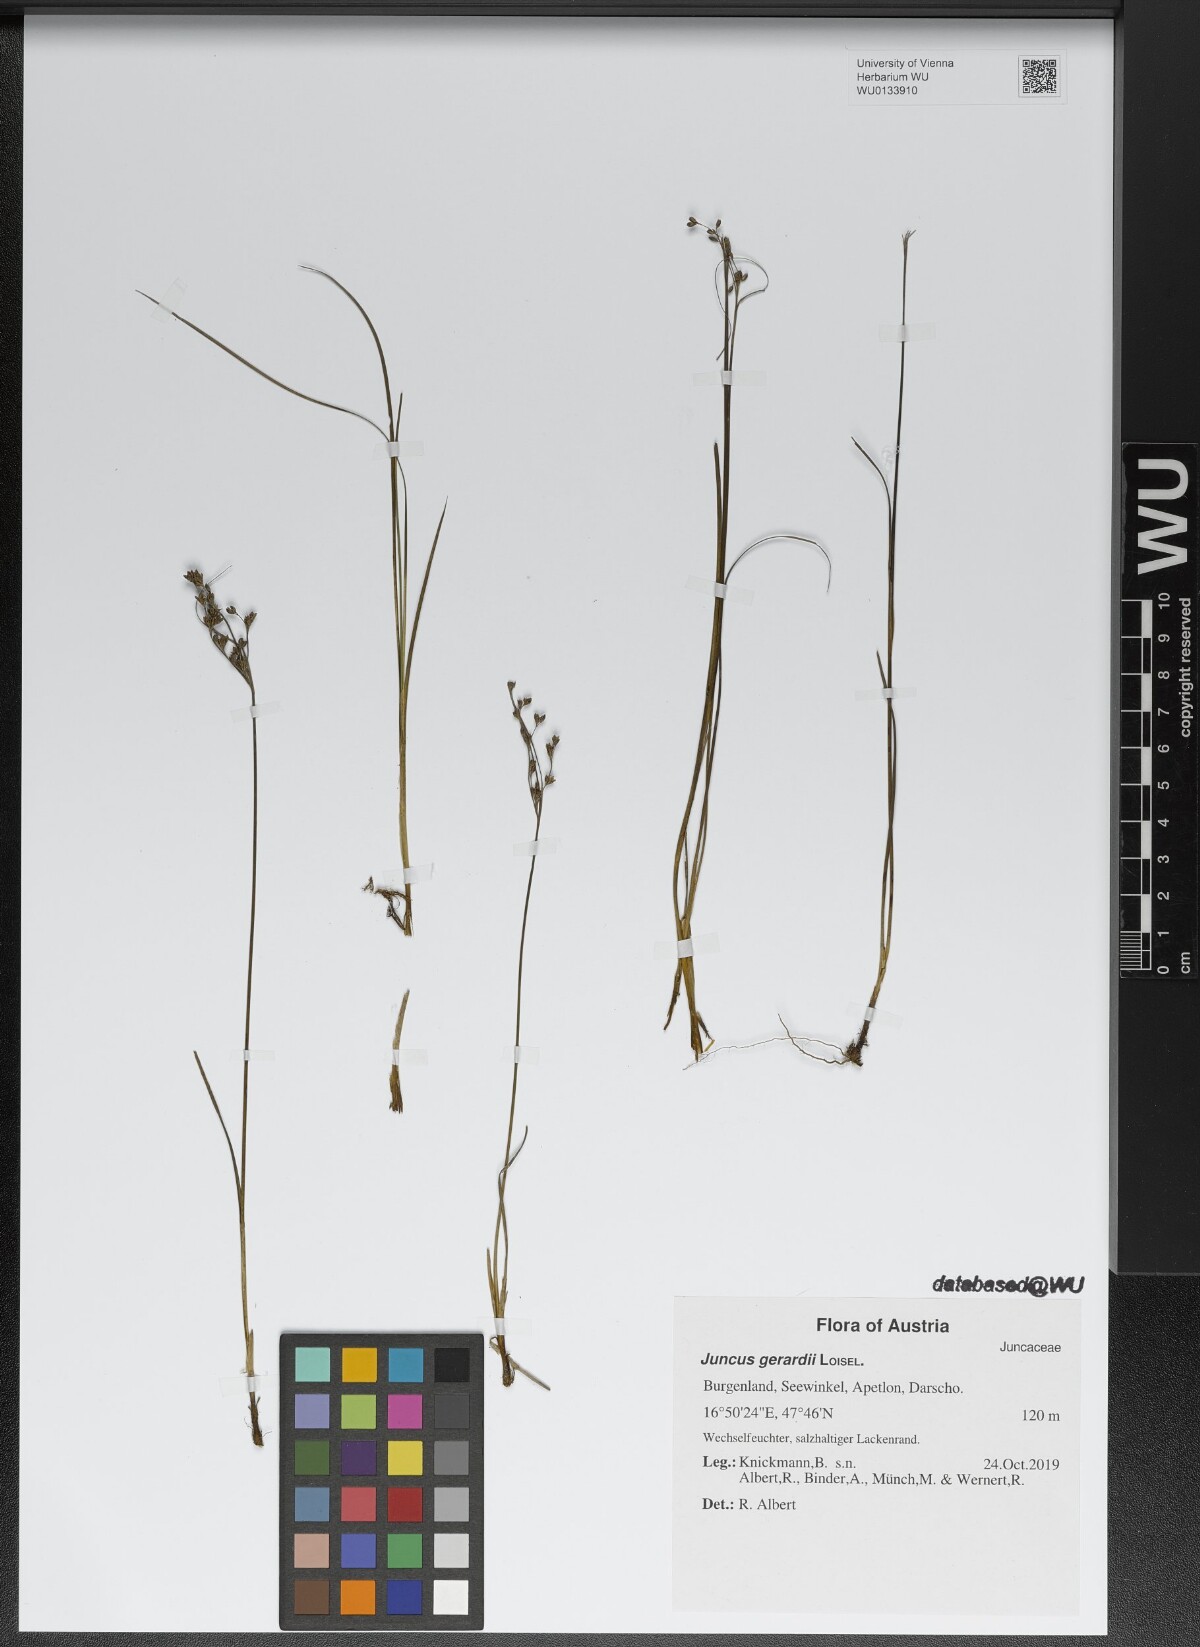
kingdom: Plantae
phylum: Tracheophyta
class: Liliopsida
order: Poales
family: Juncaceae
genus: Juncus
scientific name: Juncus gerardi
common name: Saltmarsh rush
